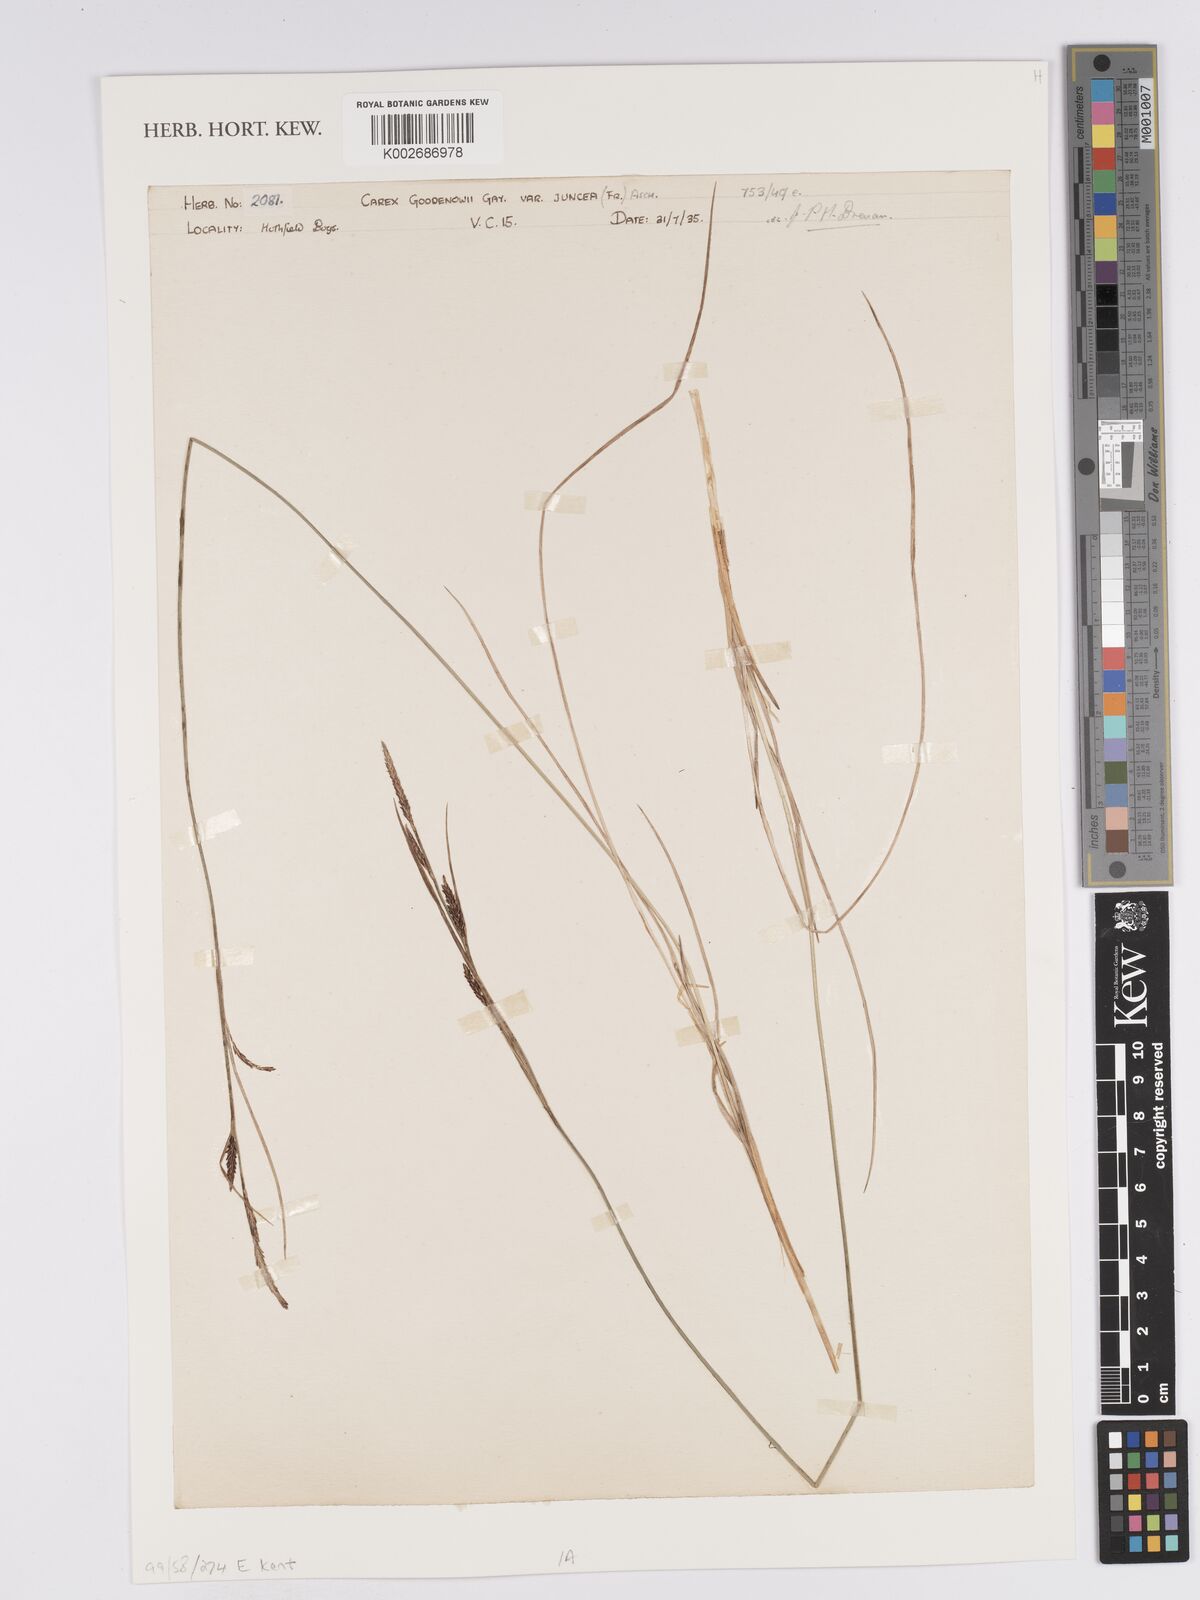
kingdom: Plantae
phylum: Tracheophyta
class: Liliopsida
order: Poales
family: Cyperaceae
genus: Carex
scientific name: Carex nigra
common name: Common sedge
